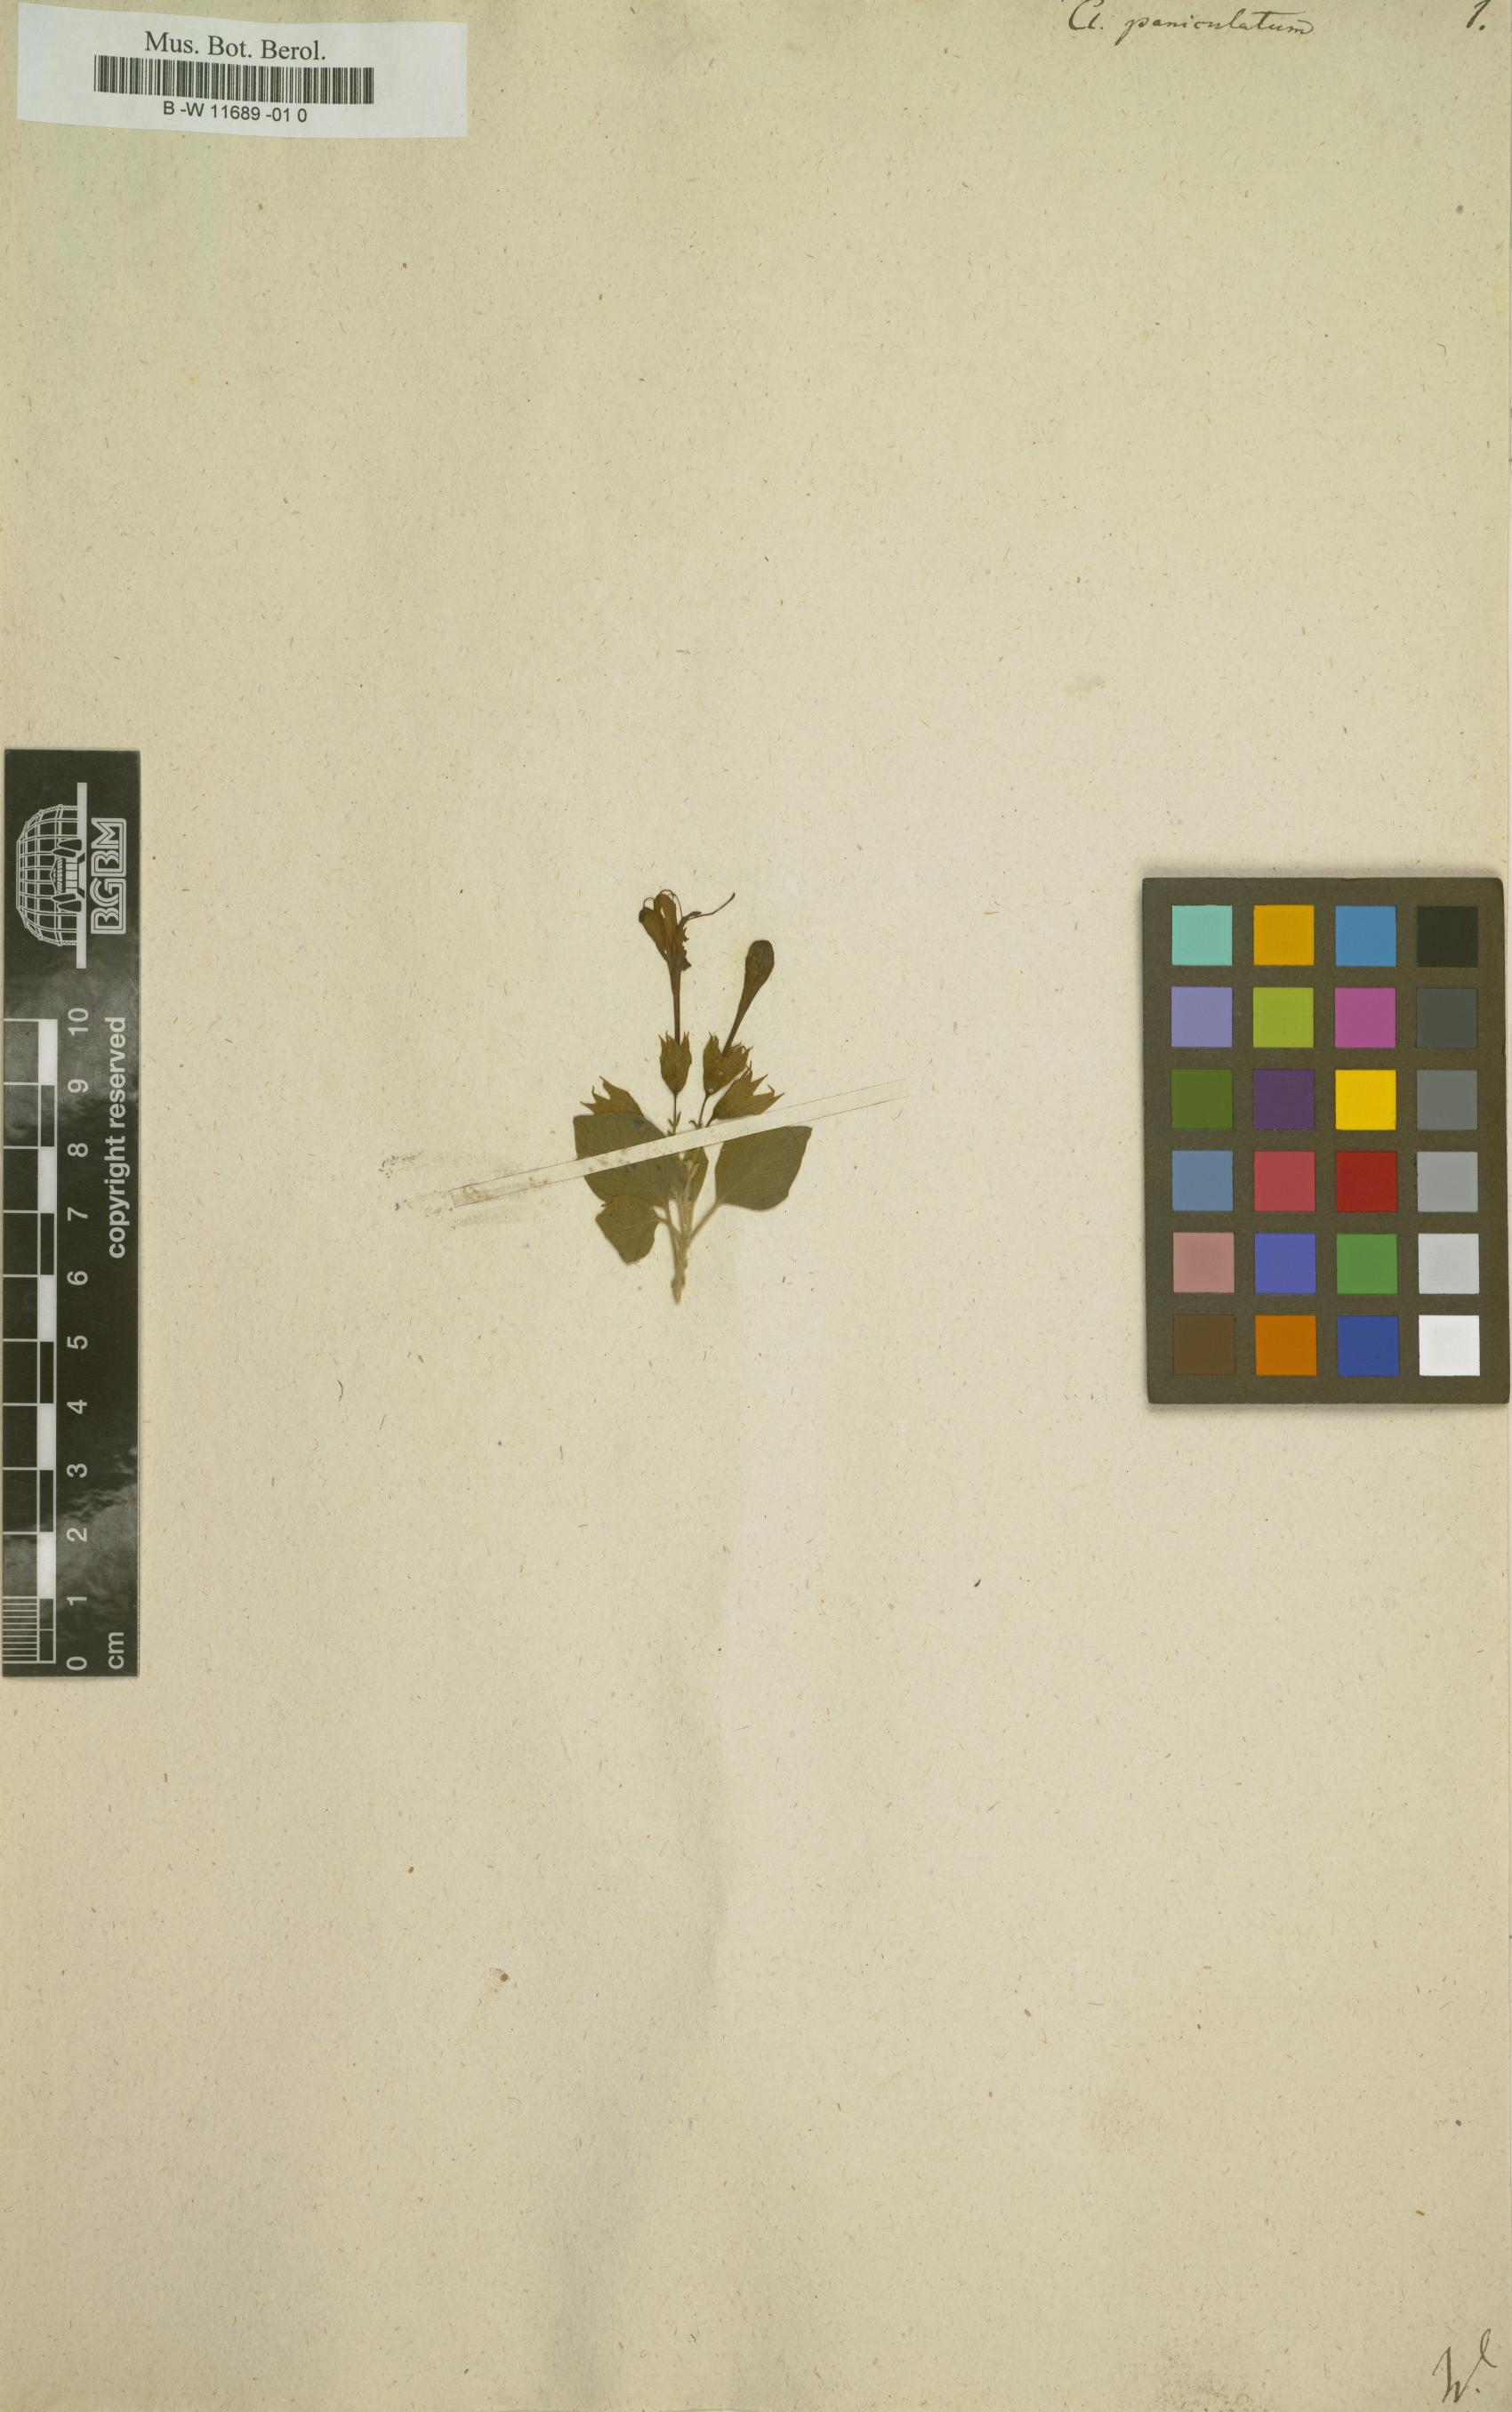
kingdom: Plantae
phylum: Tracheophyta
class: Magnoliopsida
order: Lamiales
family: Lamiaceae
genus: Clerodendrum
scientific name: Clerodendrum paniculatum
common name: Pagoda-flower
